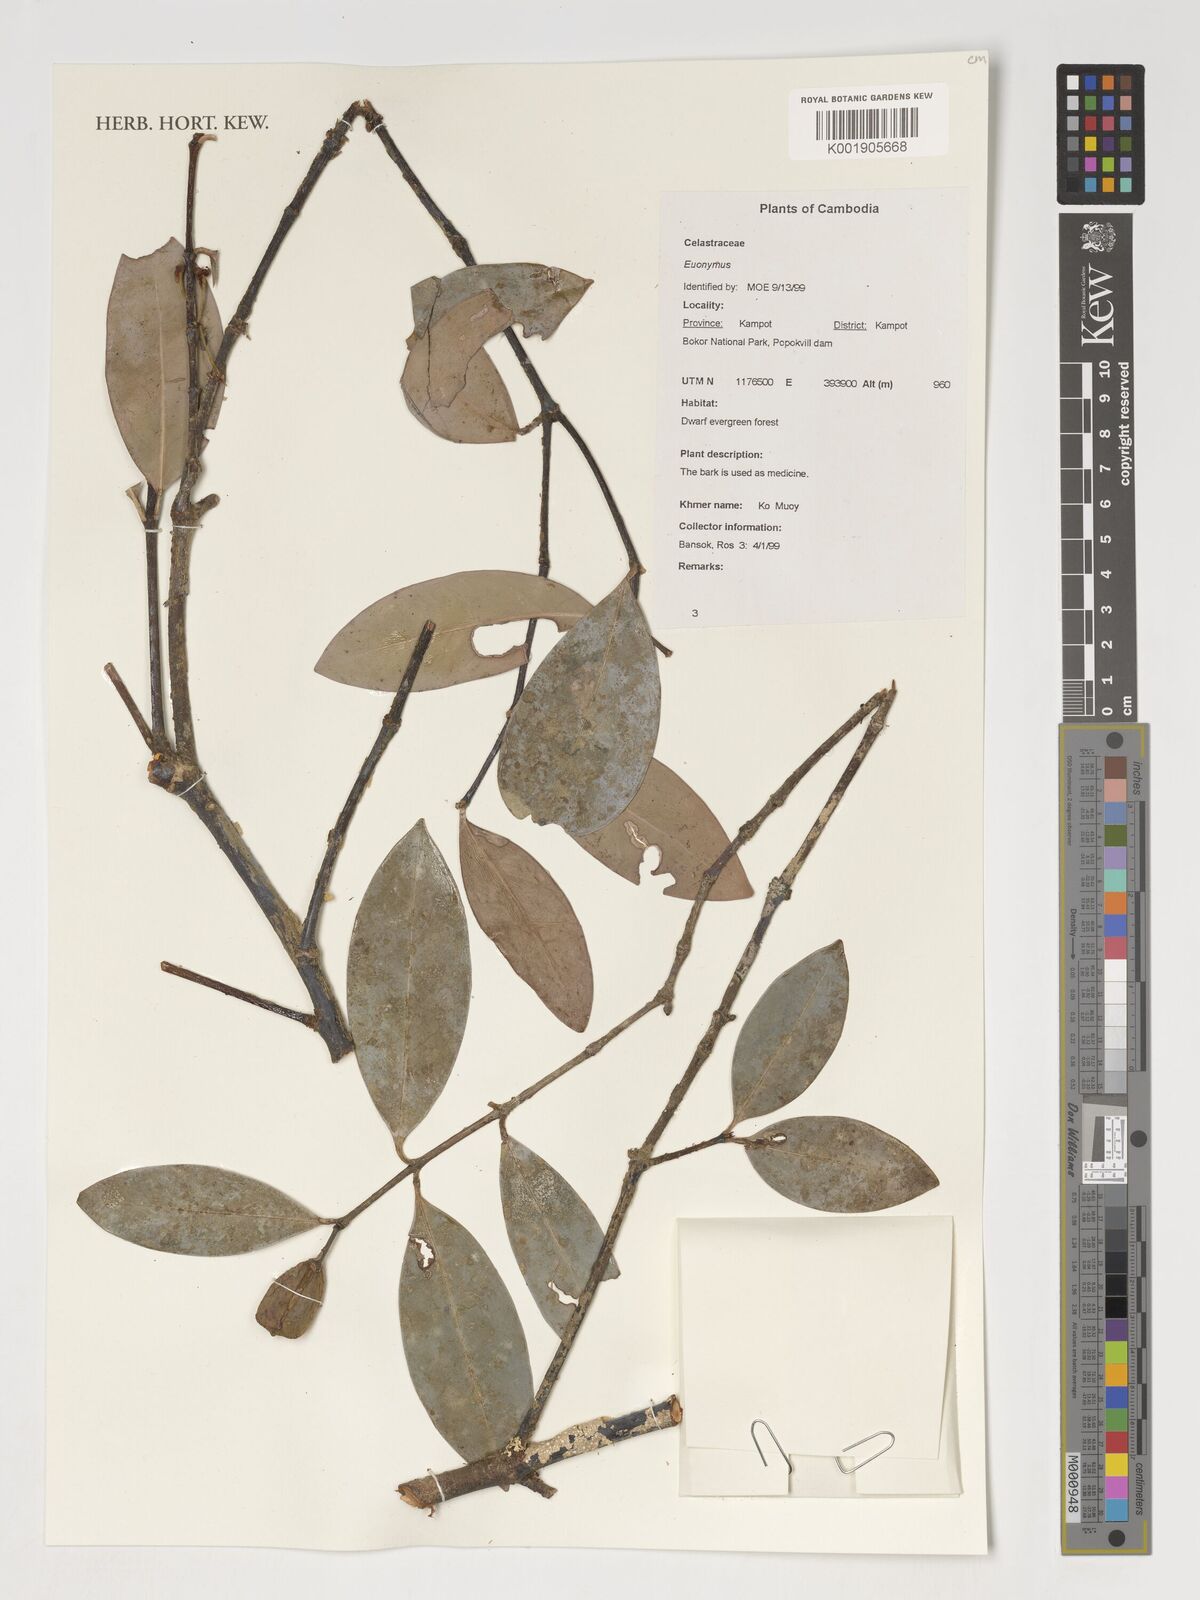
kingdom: Plantae
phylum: Tracheophyta
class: Magnoliopsida
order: Celastrales
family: Celastraceae
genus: Euonymus
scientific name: Euonymus
